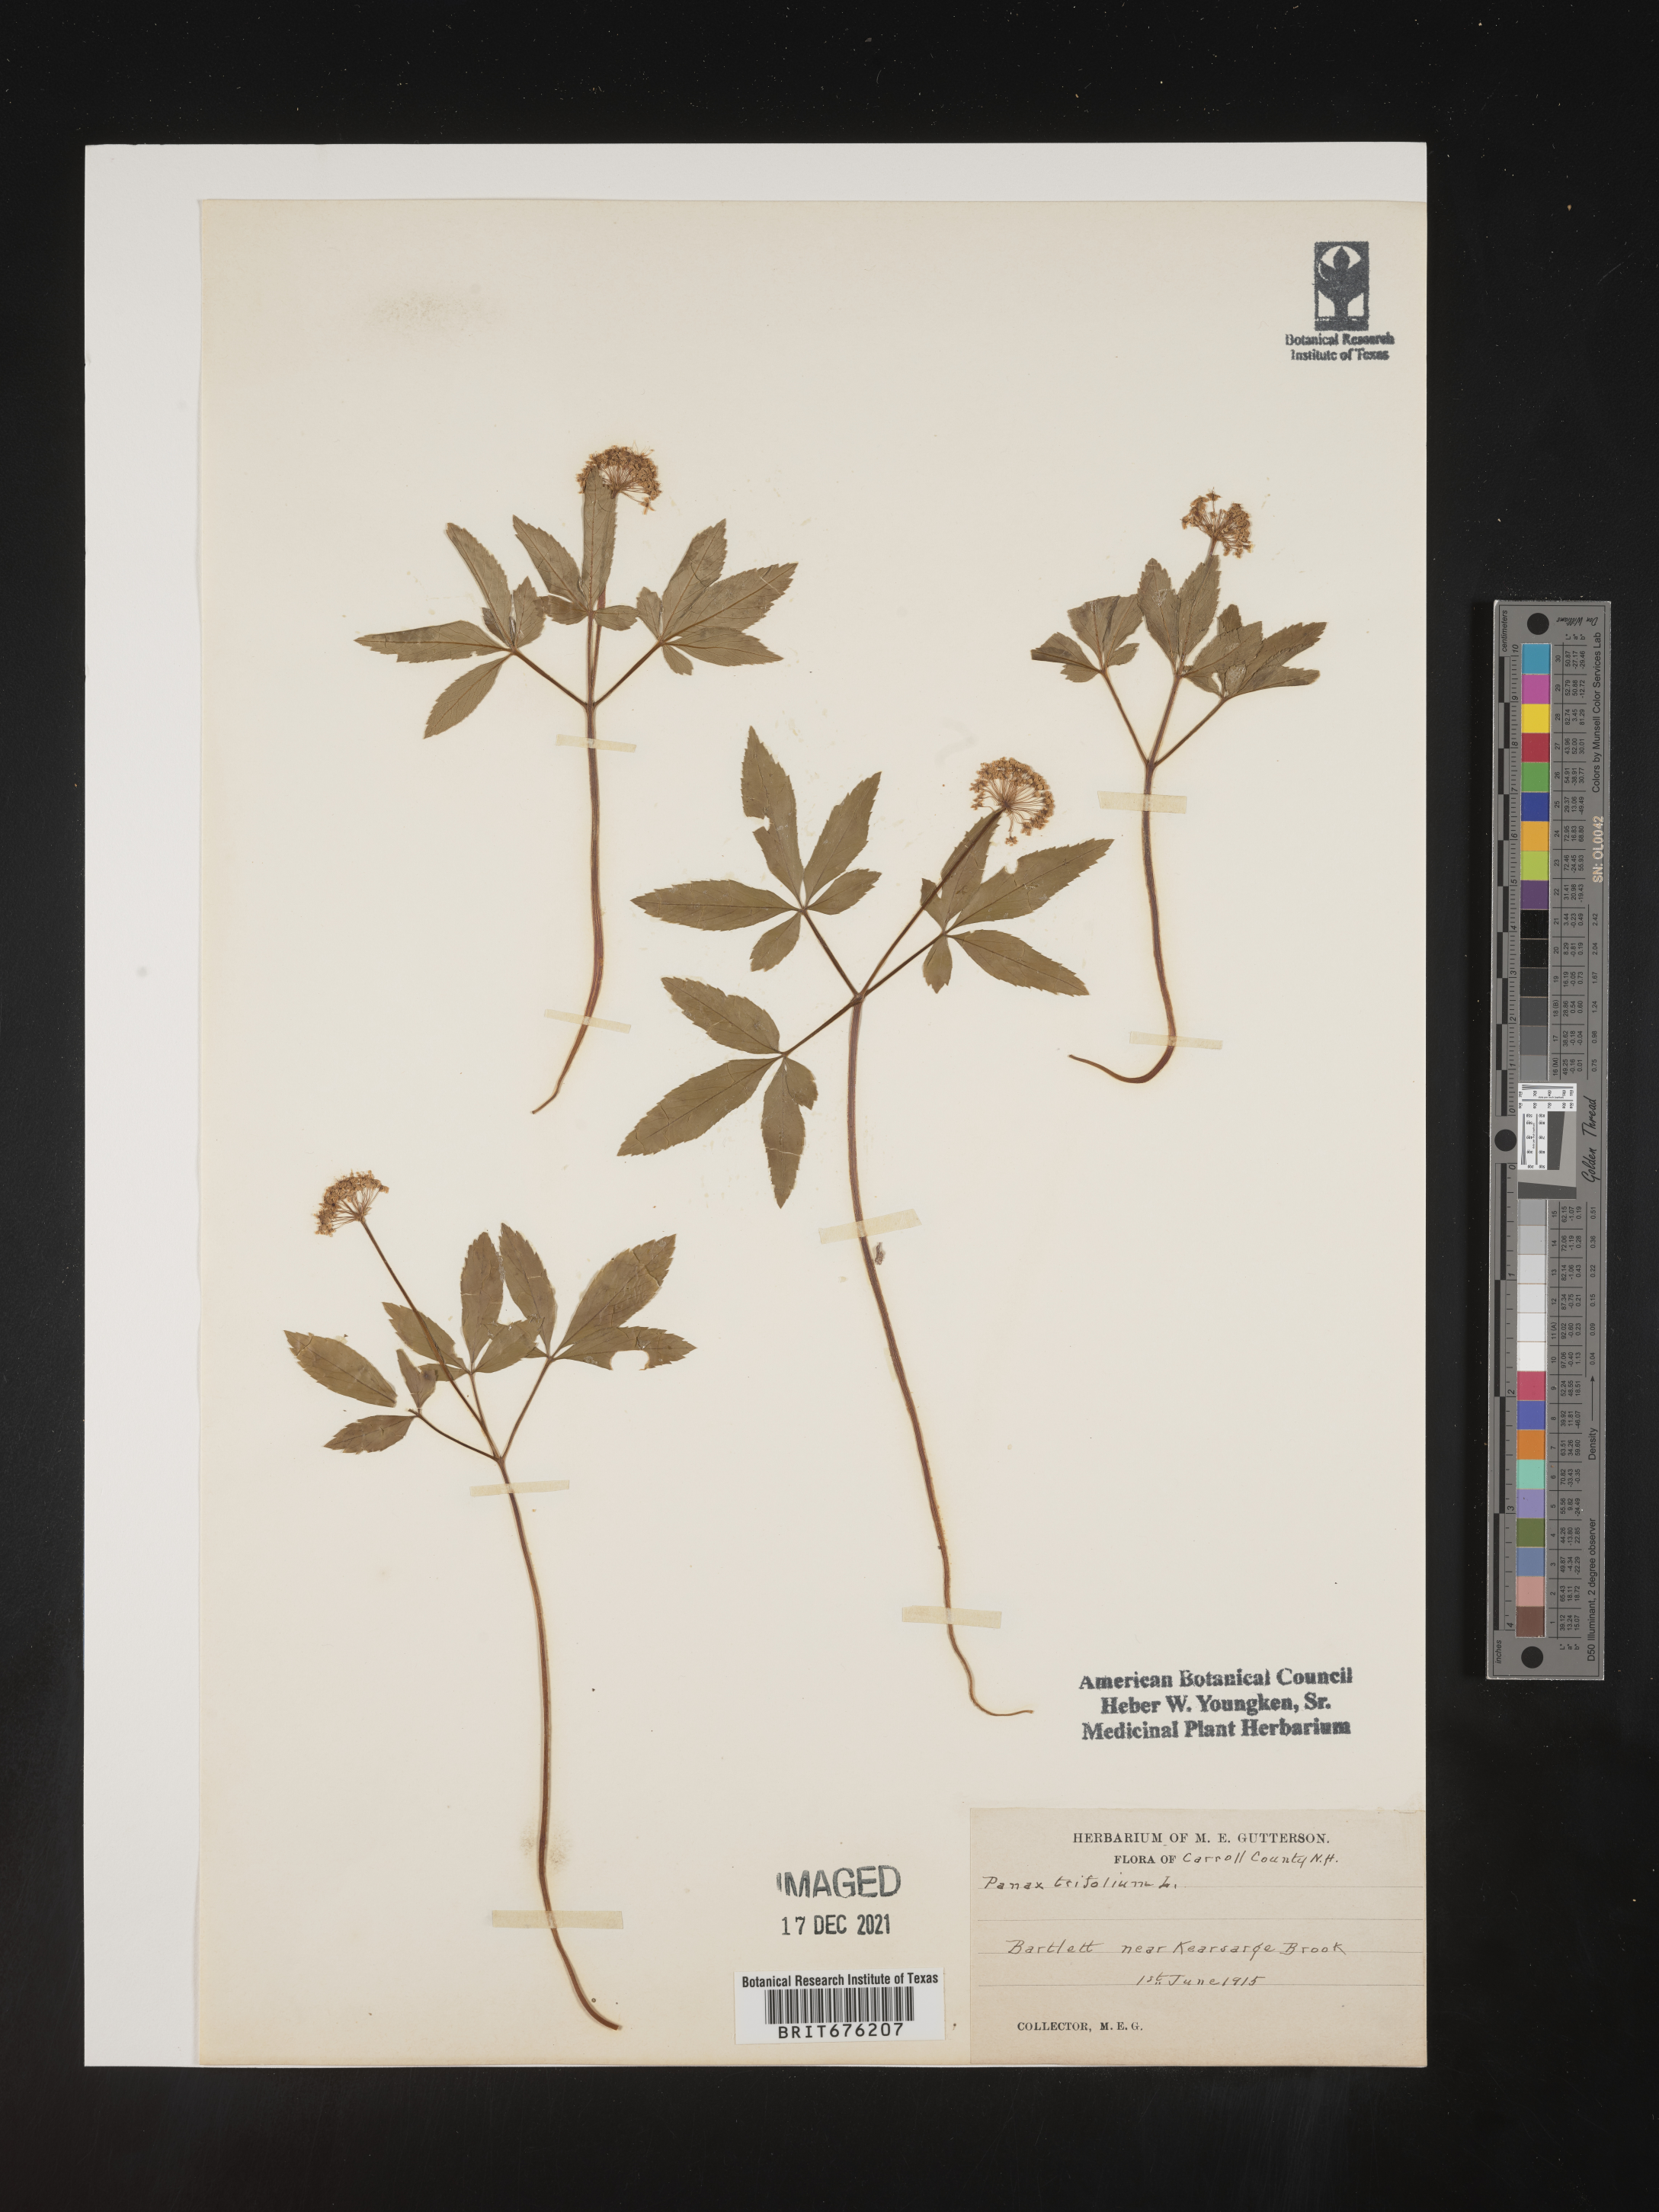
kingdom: Plantae
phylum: Tracheophyta
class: Magnoliopsida
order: Apiales
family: Araliaceae
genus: Panax
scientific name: Panax trifolius
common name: Dwarf ginseng
